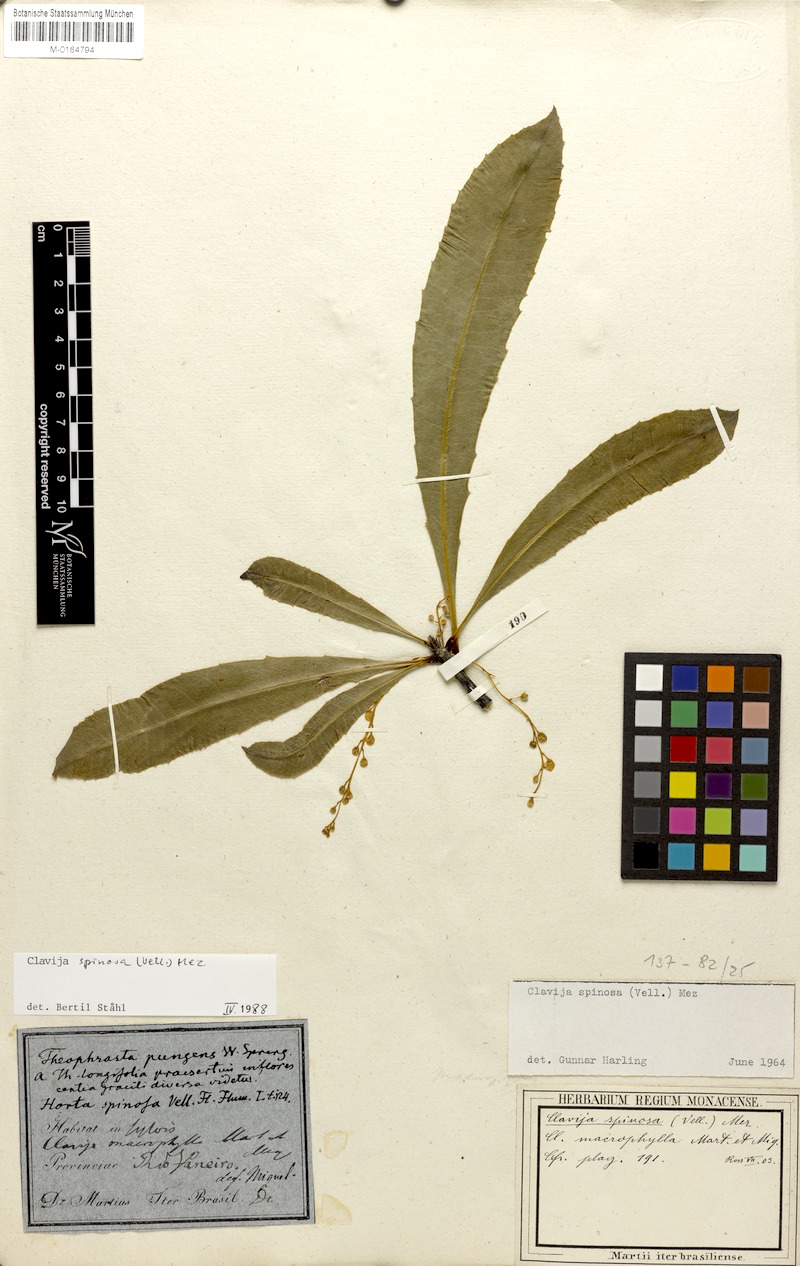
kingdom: Plantae
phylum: Tracheophyta
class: Magnoliopsida
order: Ericales
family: Primulaceae
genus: Clavija
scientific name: Clavija spinosa
